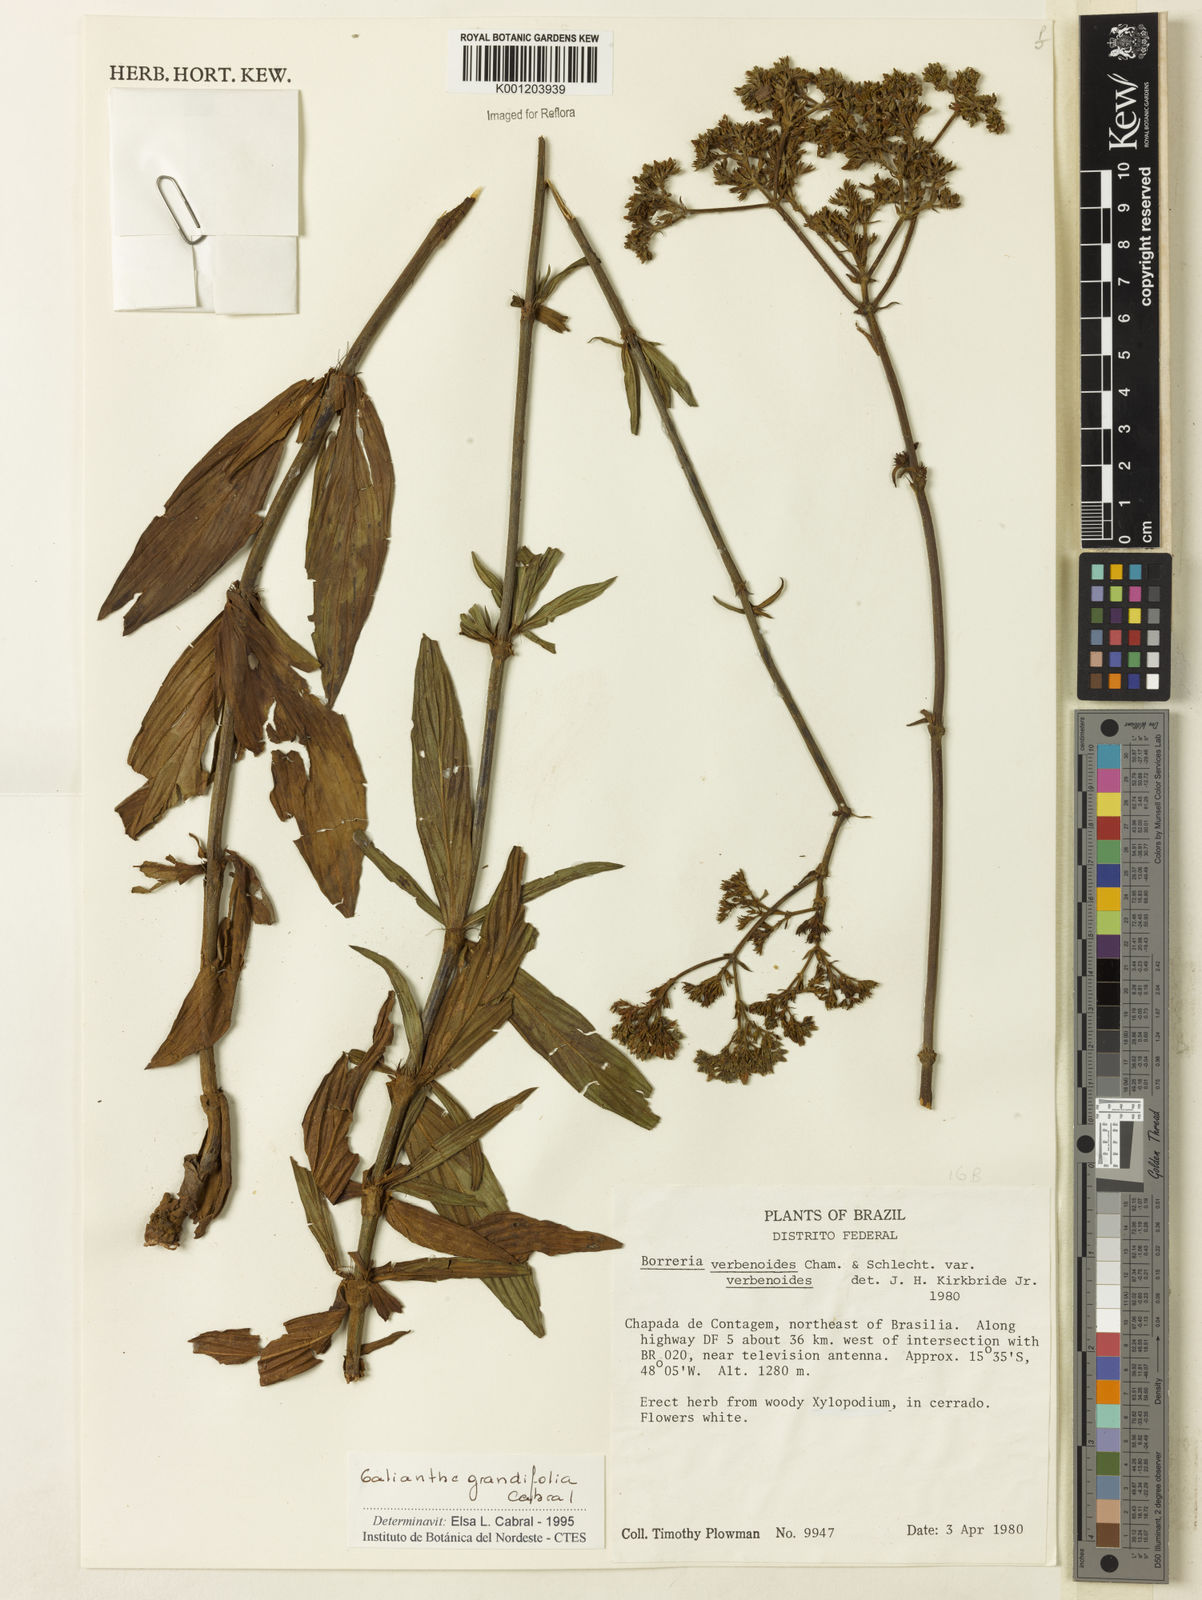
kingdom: Plantae
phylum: Tracheophyta
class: Magnoliopsida
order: Gentianales
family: Rubiaceae
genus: Galianthe
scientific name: Galianthe grandifolia
